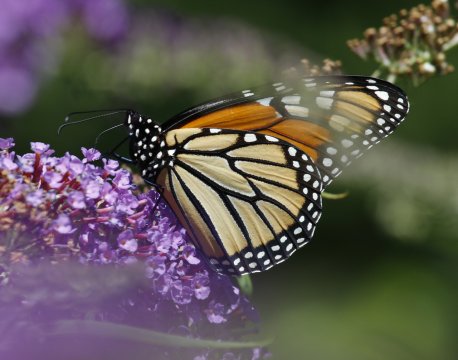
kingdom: Animalia
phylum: Arthropoda
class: Insecta
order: Lepidoptera
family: Nymphalidae
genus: Danaus
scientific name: Danaus plexippus
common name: Monarch
